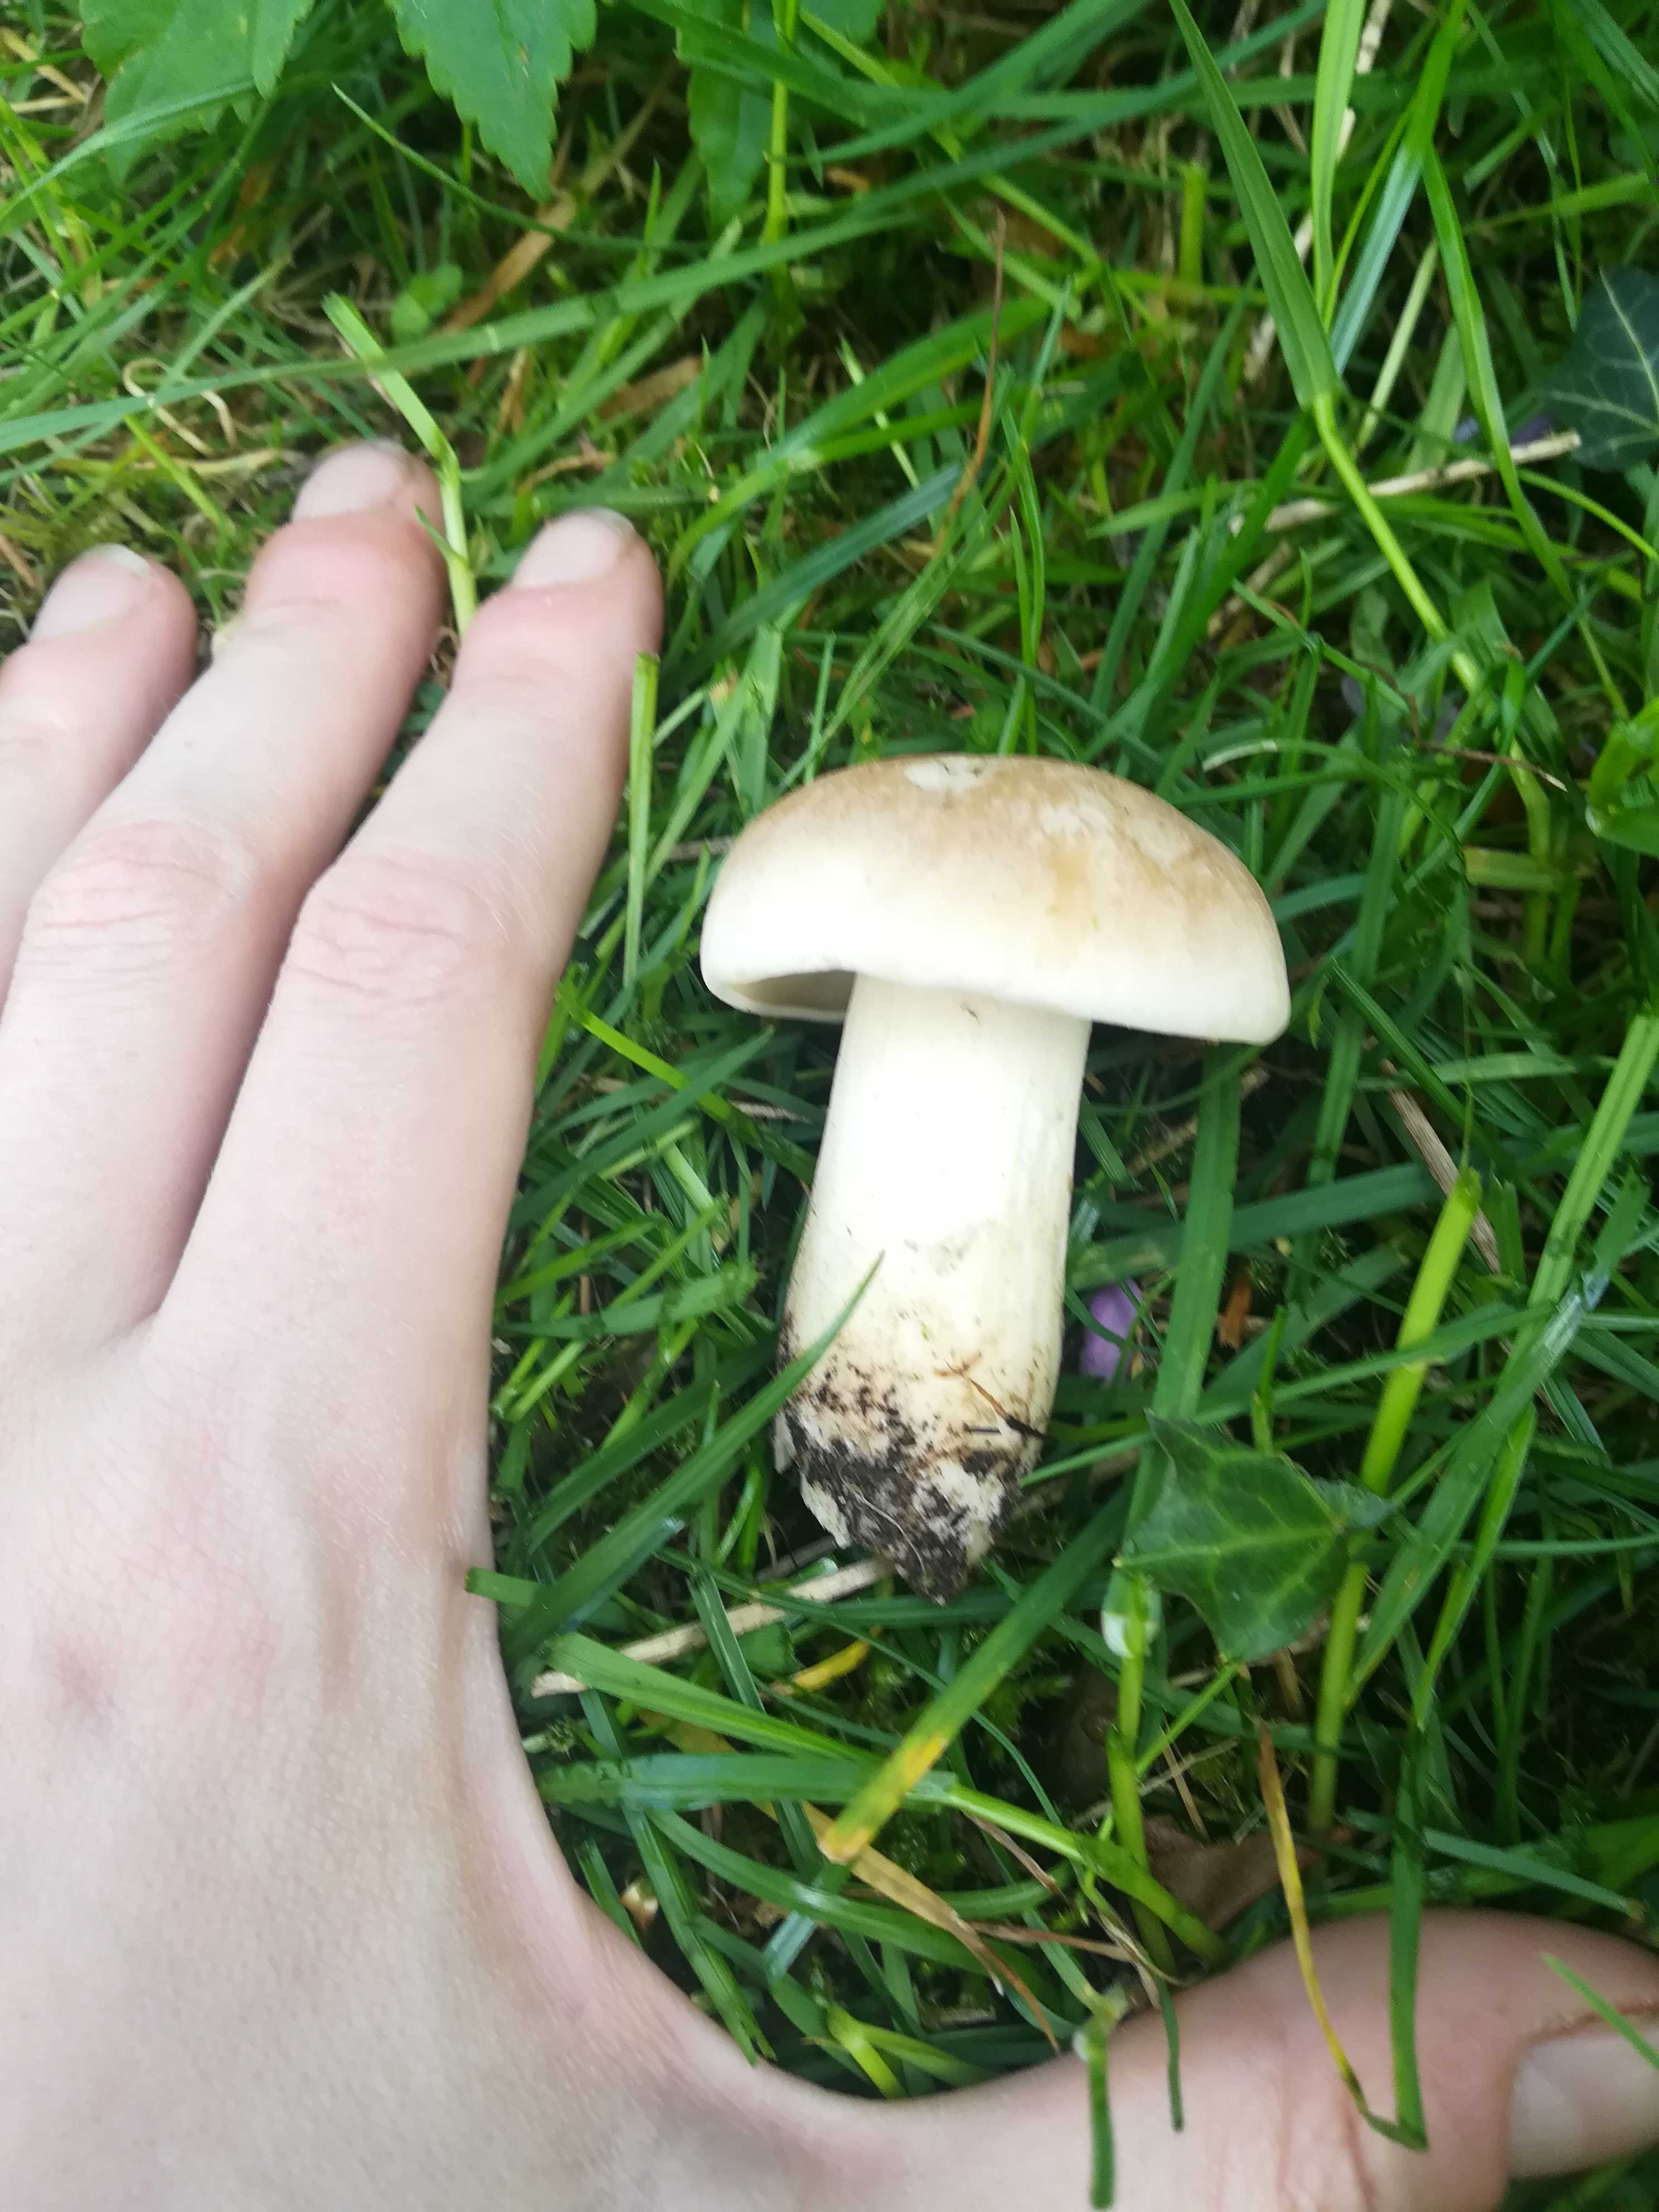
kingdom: Fungi
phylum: Basidiomycota
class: Agaricomycetes
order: Agaricales
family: Lyophyllaceae
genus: Calocybe
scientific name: Calocybe gambosa
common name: vårmusseron
